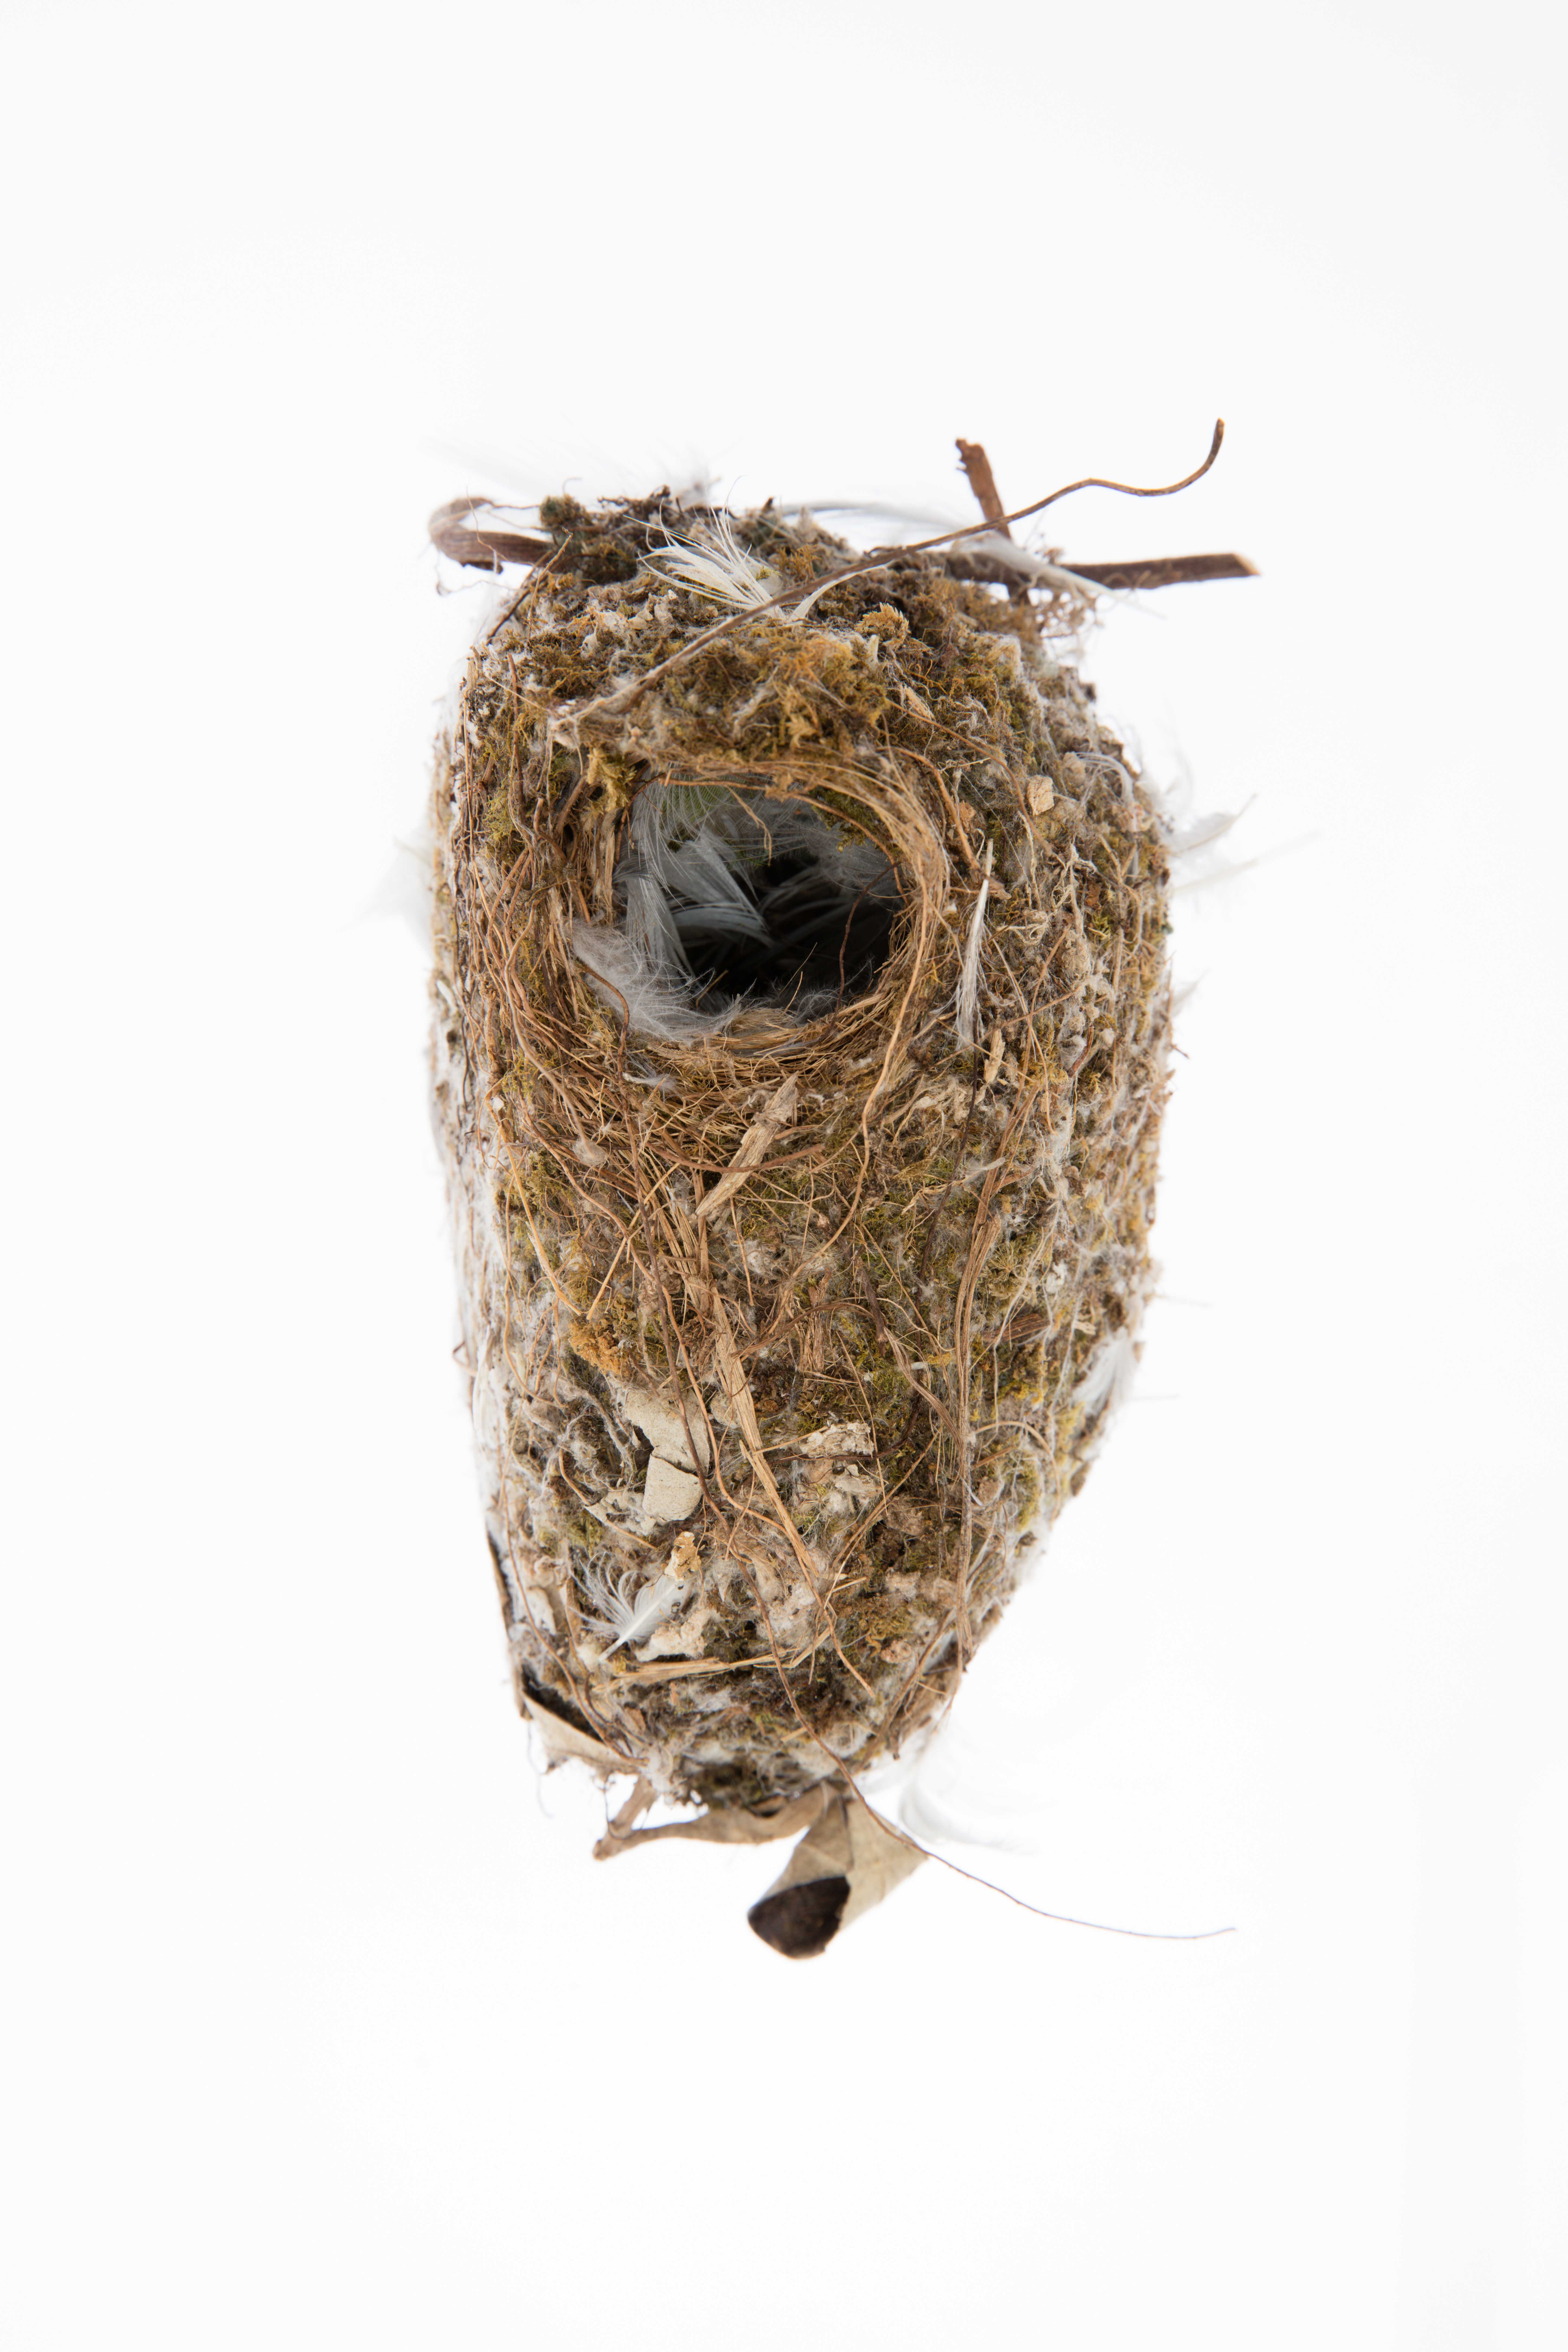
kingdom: Animalia
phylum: Chordata
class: Aves
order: Passeriformes
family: Acanthizidae
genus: Gerygone
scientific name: Gerygone albofrontata
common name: Chatham gerygone
